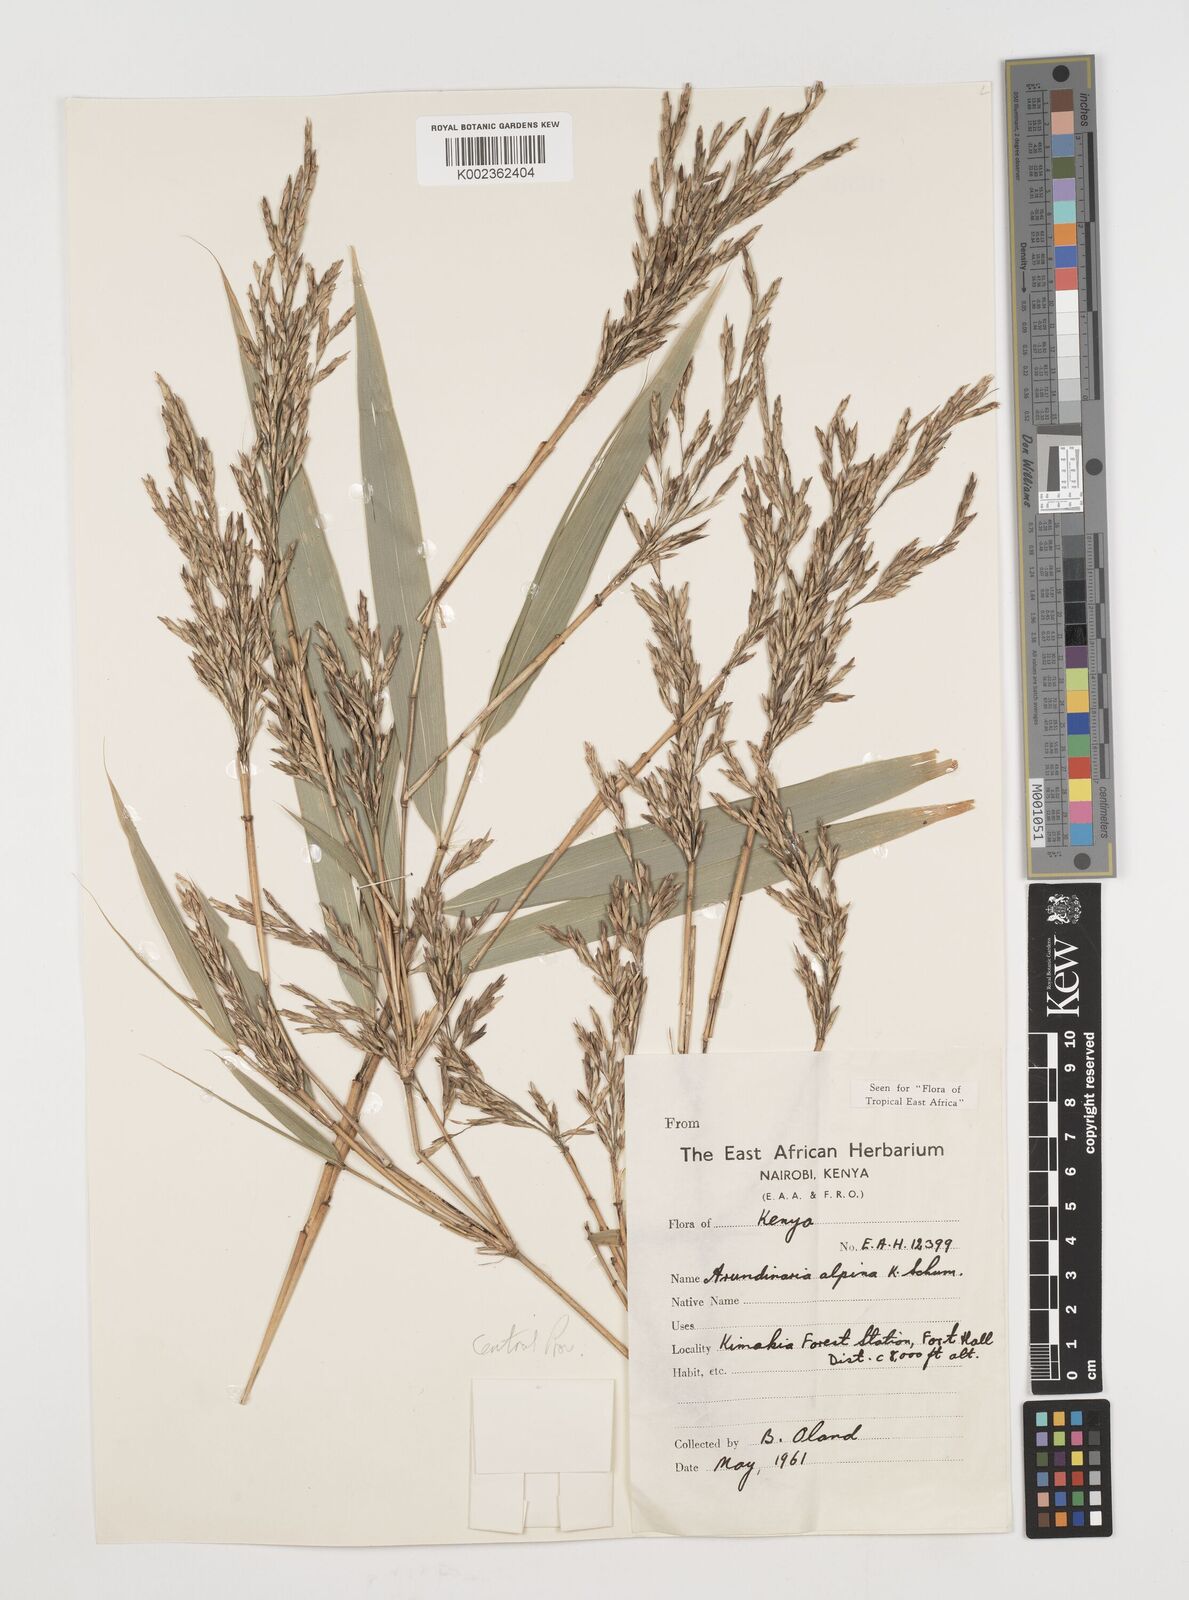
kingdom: Plantae
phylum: Tracheophyta
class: Liliopsida
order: Poales
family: Poaceae
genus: Oldeania
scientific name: Oldeania alpina
